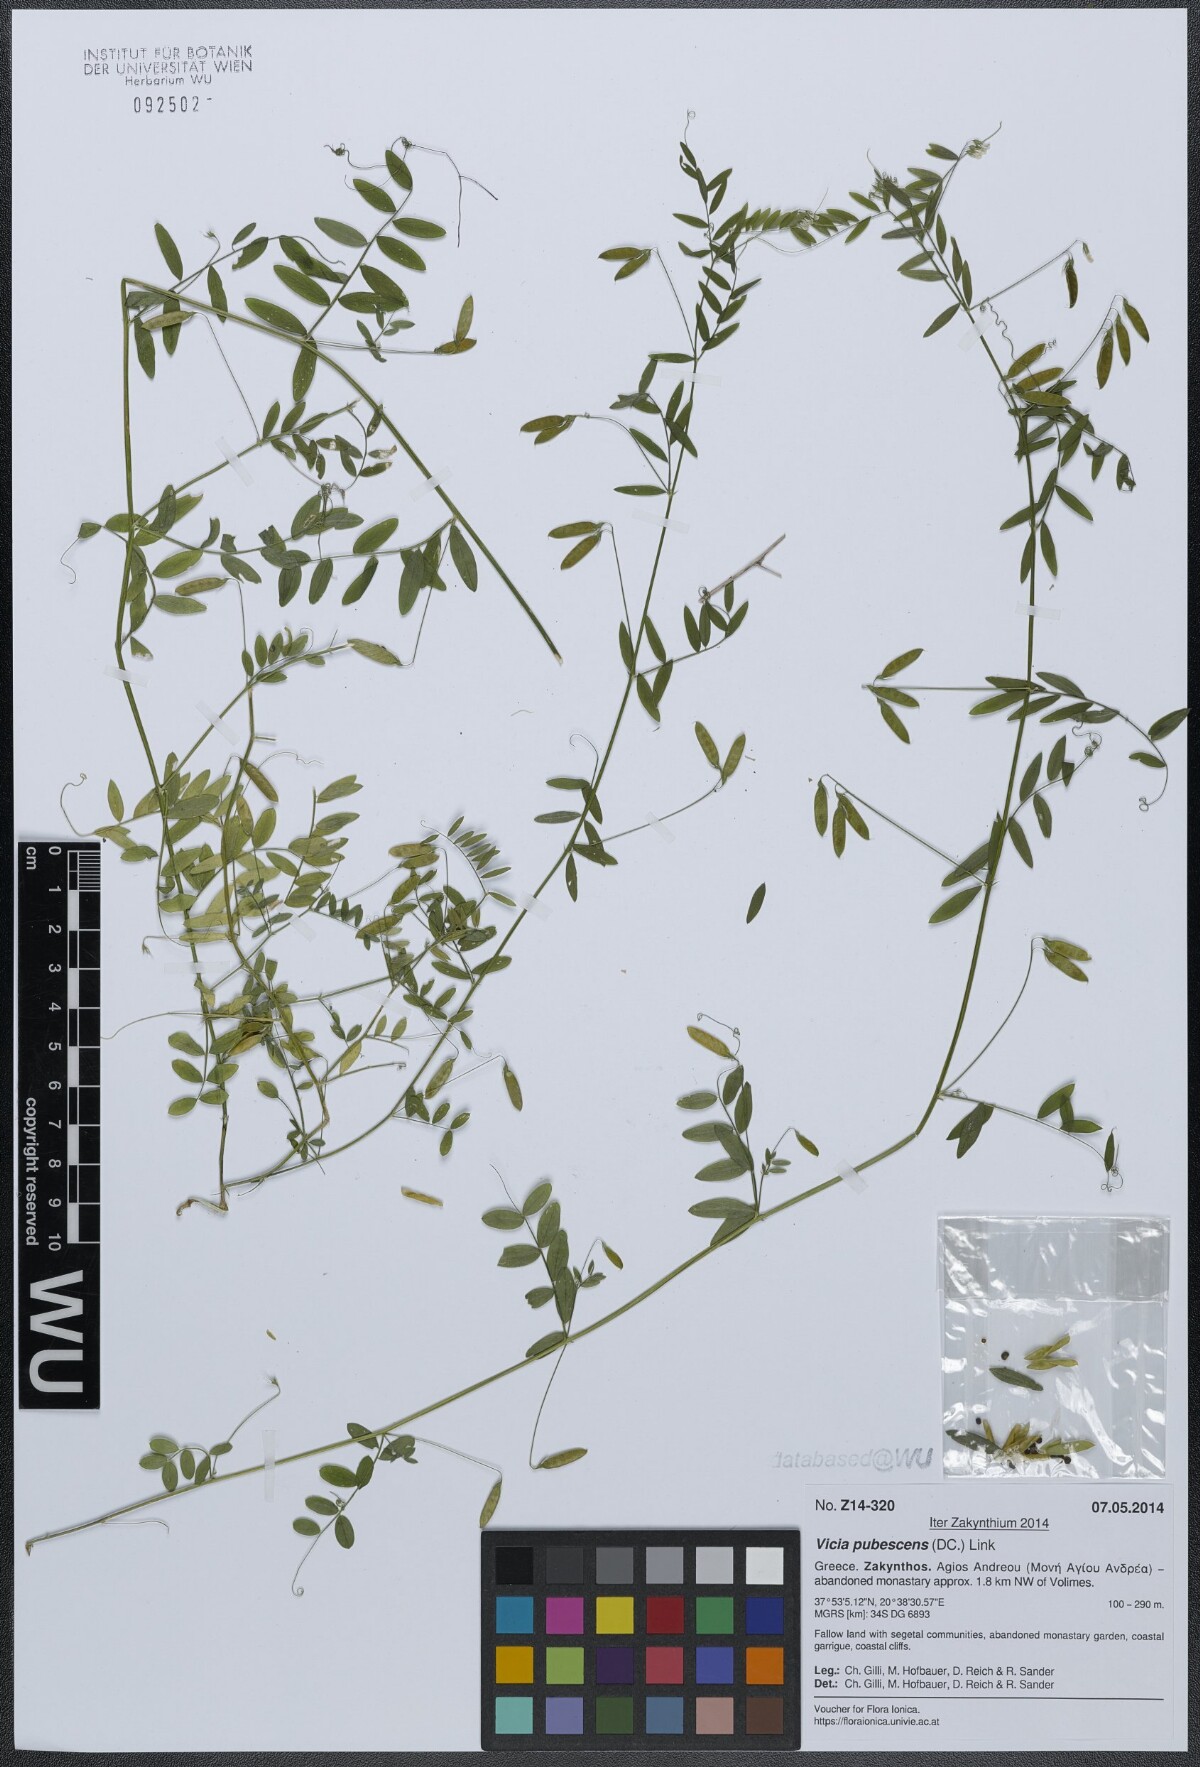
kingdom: Plantae
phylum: Tracheophyta
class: Magnoliopsida
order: Fabales
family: Fabaceae
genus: Vicia
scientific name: Vicia pubescens
